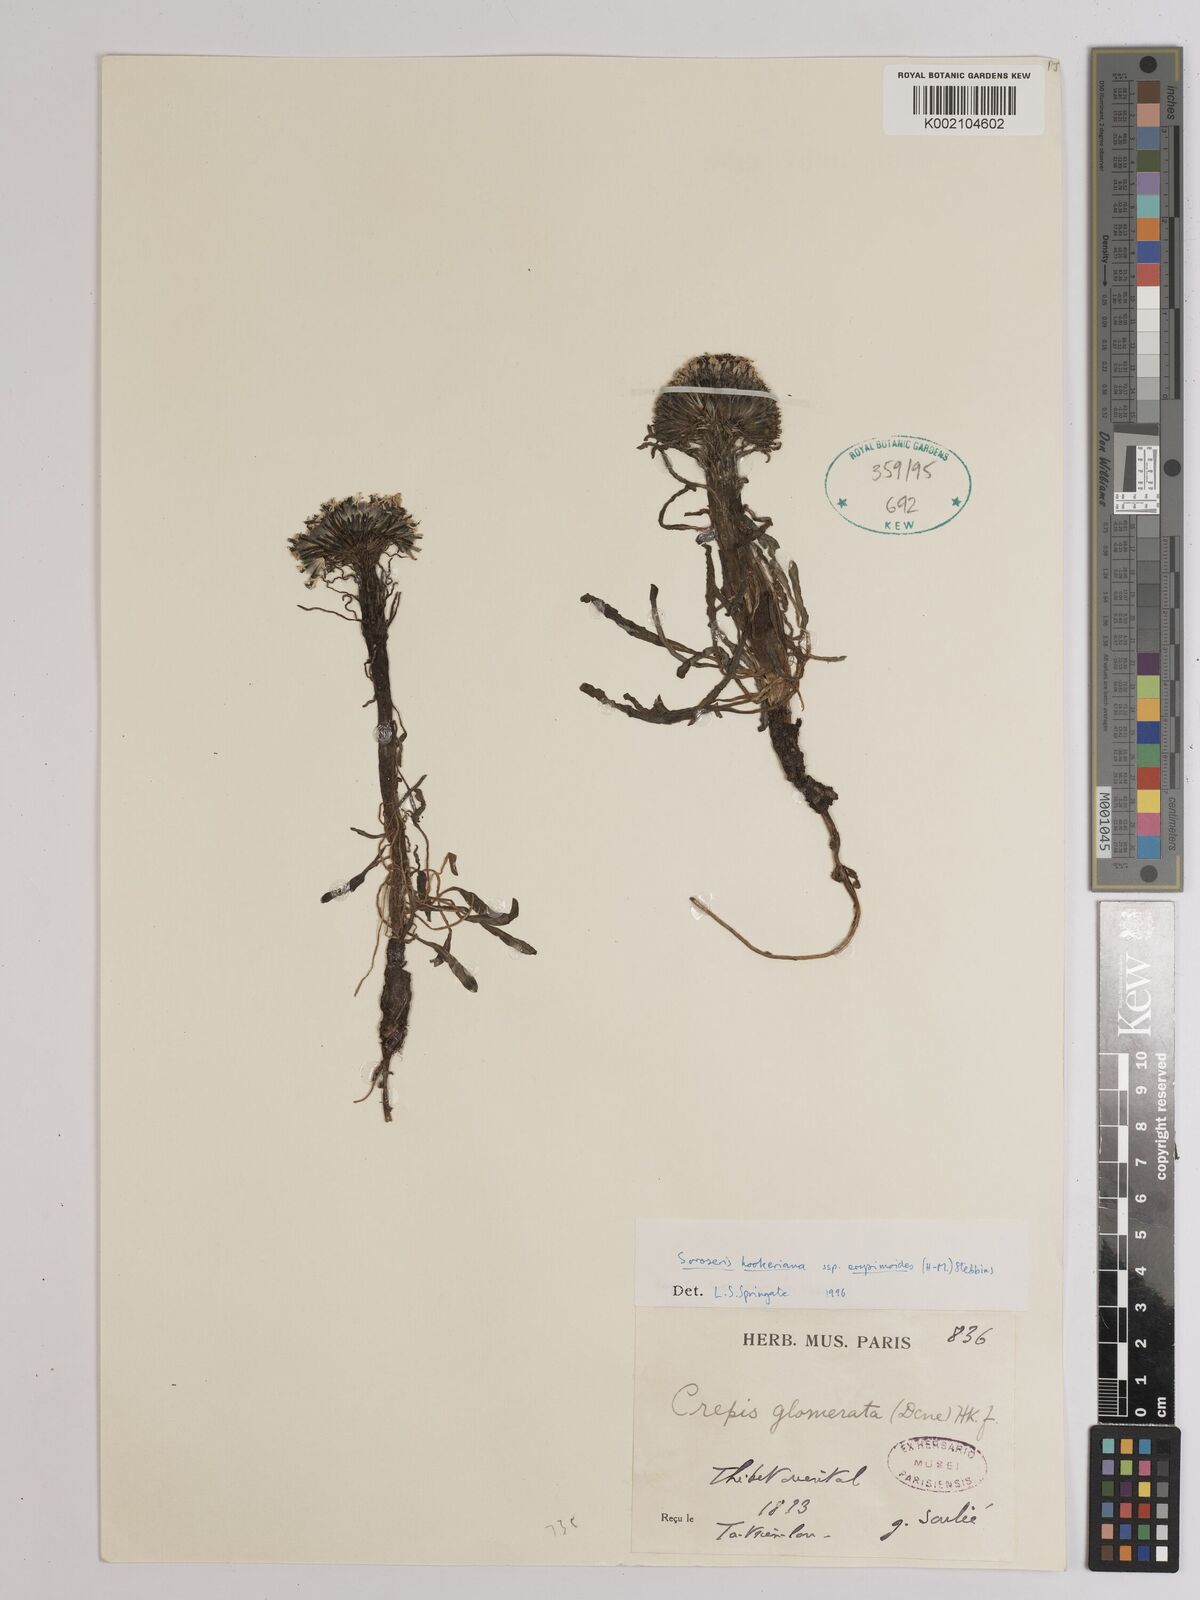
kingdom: Plantae
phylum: Tracheophyta
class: Magnoliopsida
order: Asterales
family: Asteraceae
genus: Soroseris
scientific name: Soroseris hookeriana
